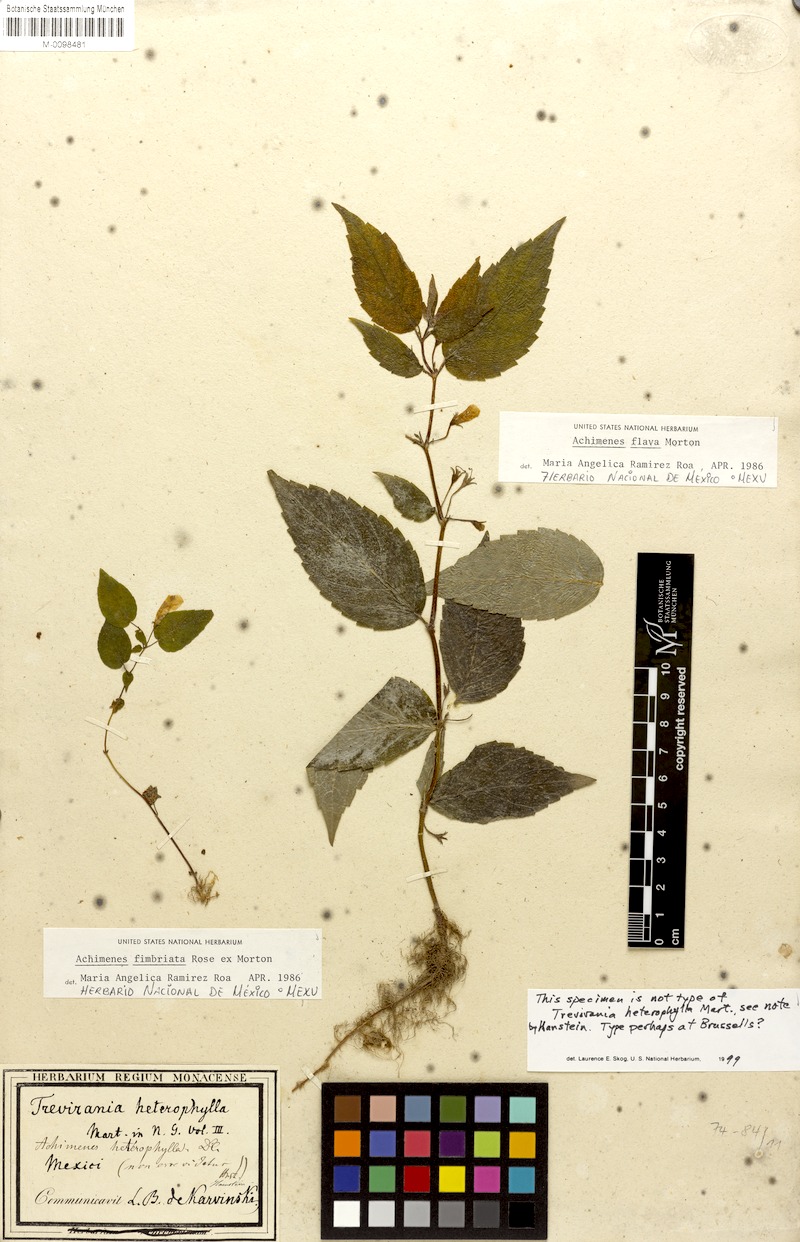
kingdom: Plantae
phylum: Tracheophyta
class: Magnoliopsida
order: Lamiales
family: Gesneriaceae
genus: Achimenes
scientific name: Achimenes fimbriata
